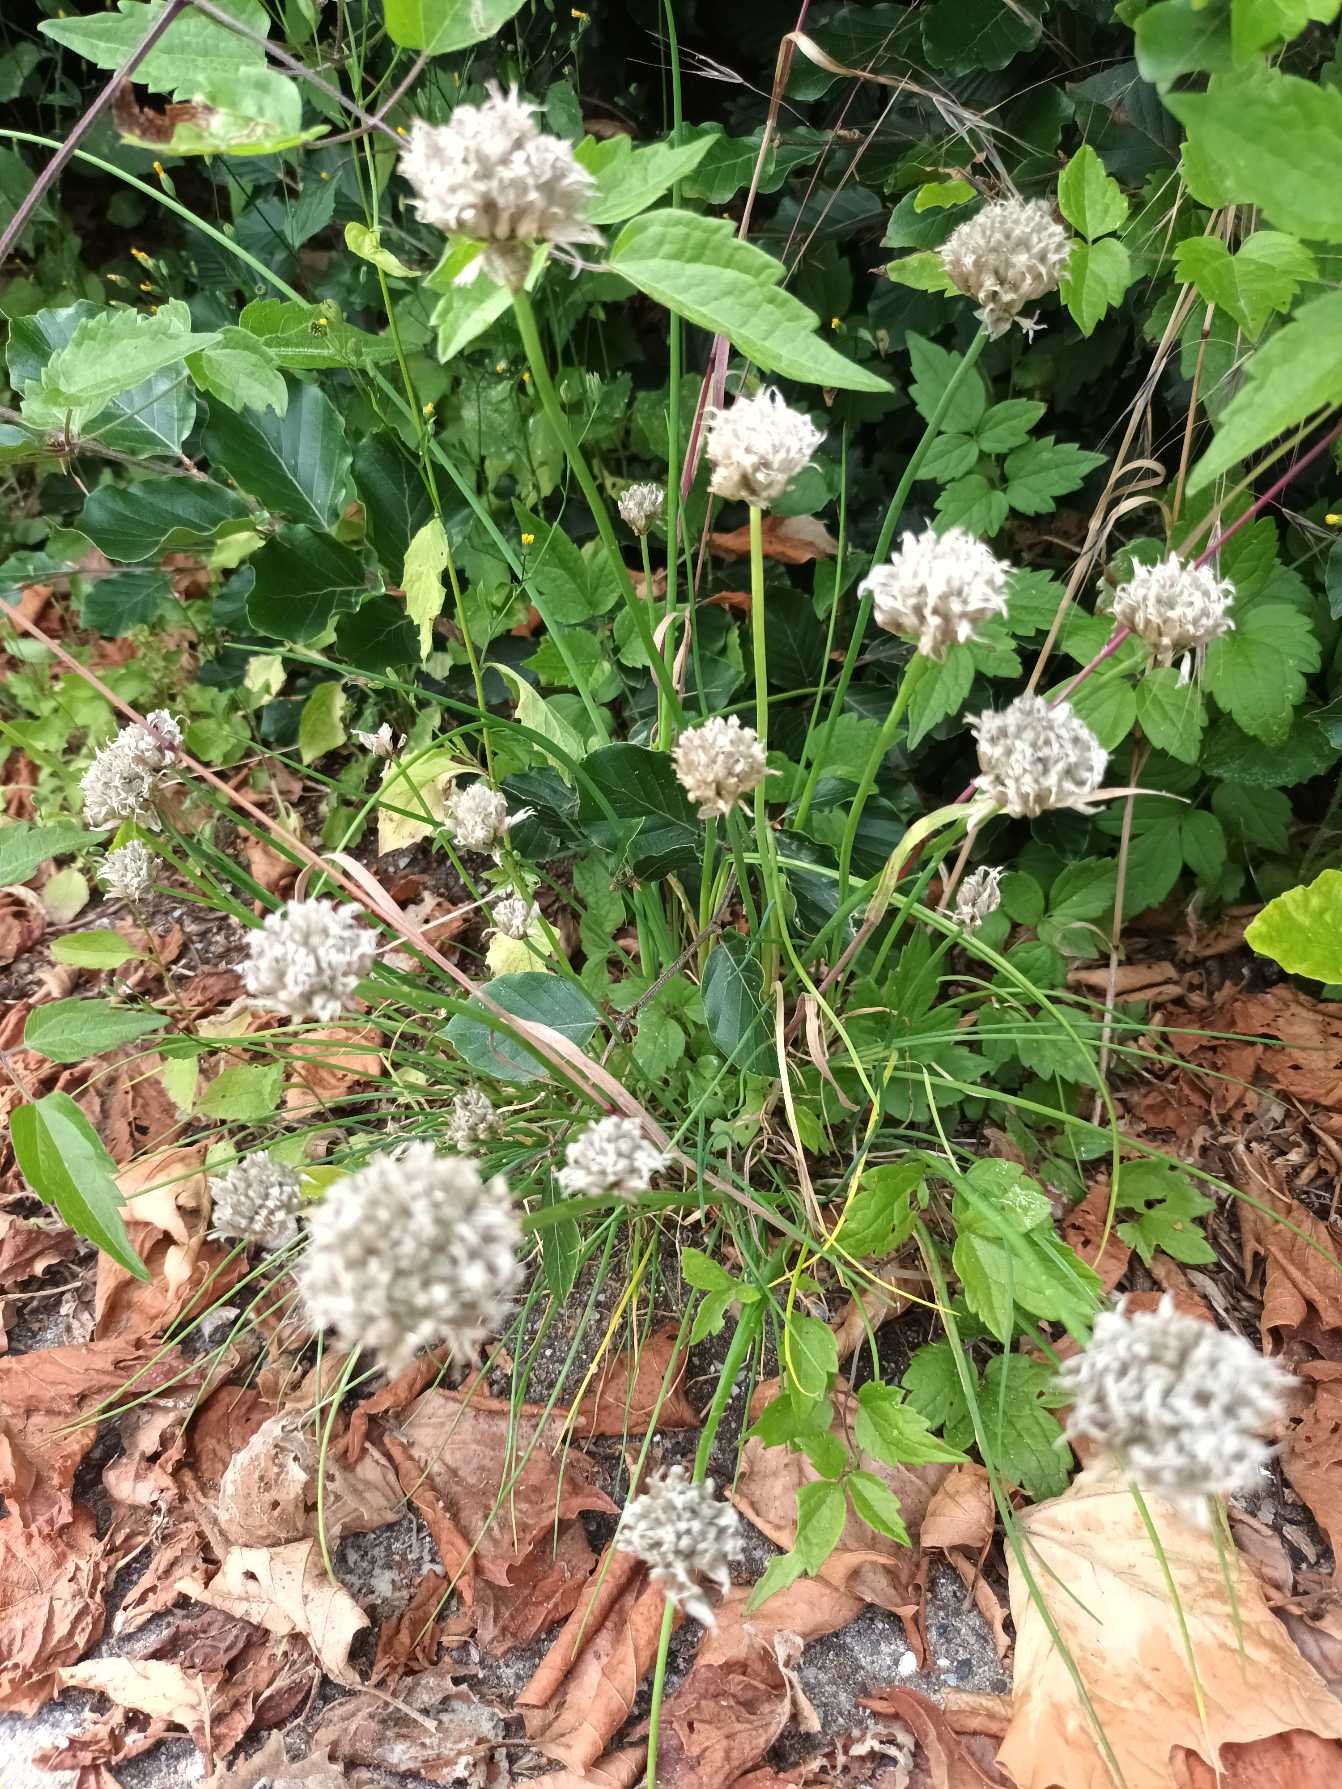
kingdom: Plantae
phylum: Tracheophyta
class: Liliopsida
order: Asparagales
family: Amaryllidaceae
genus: Allium
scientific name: Allium schoenoprasum
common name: Pur-løg
